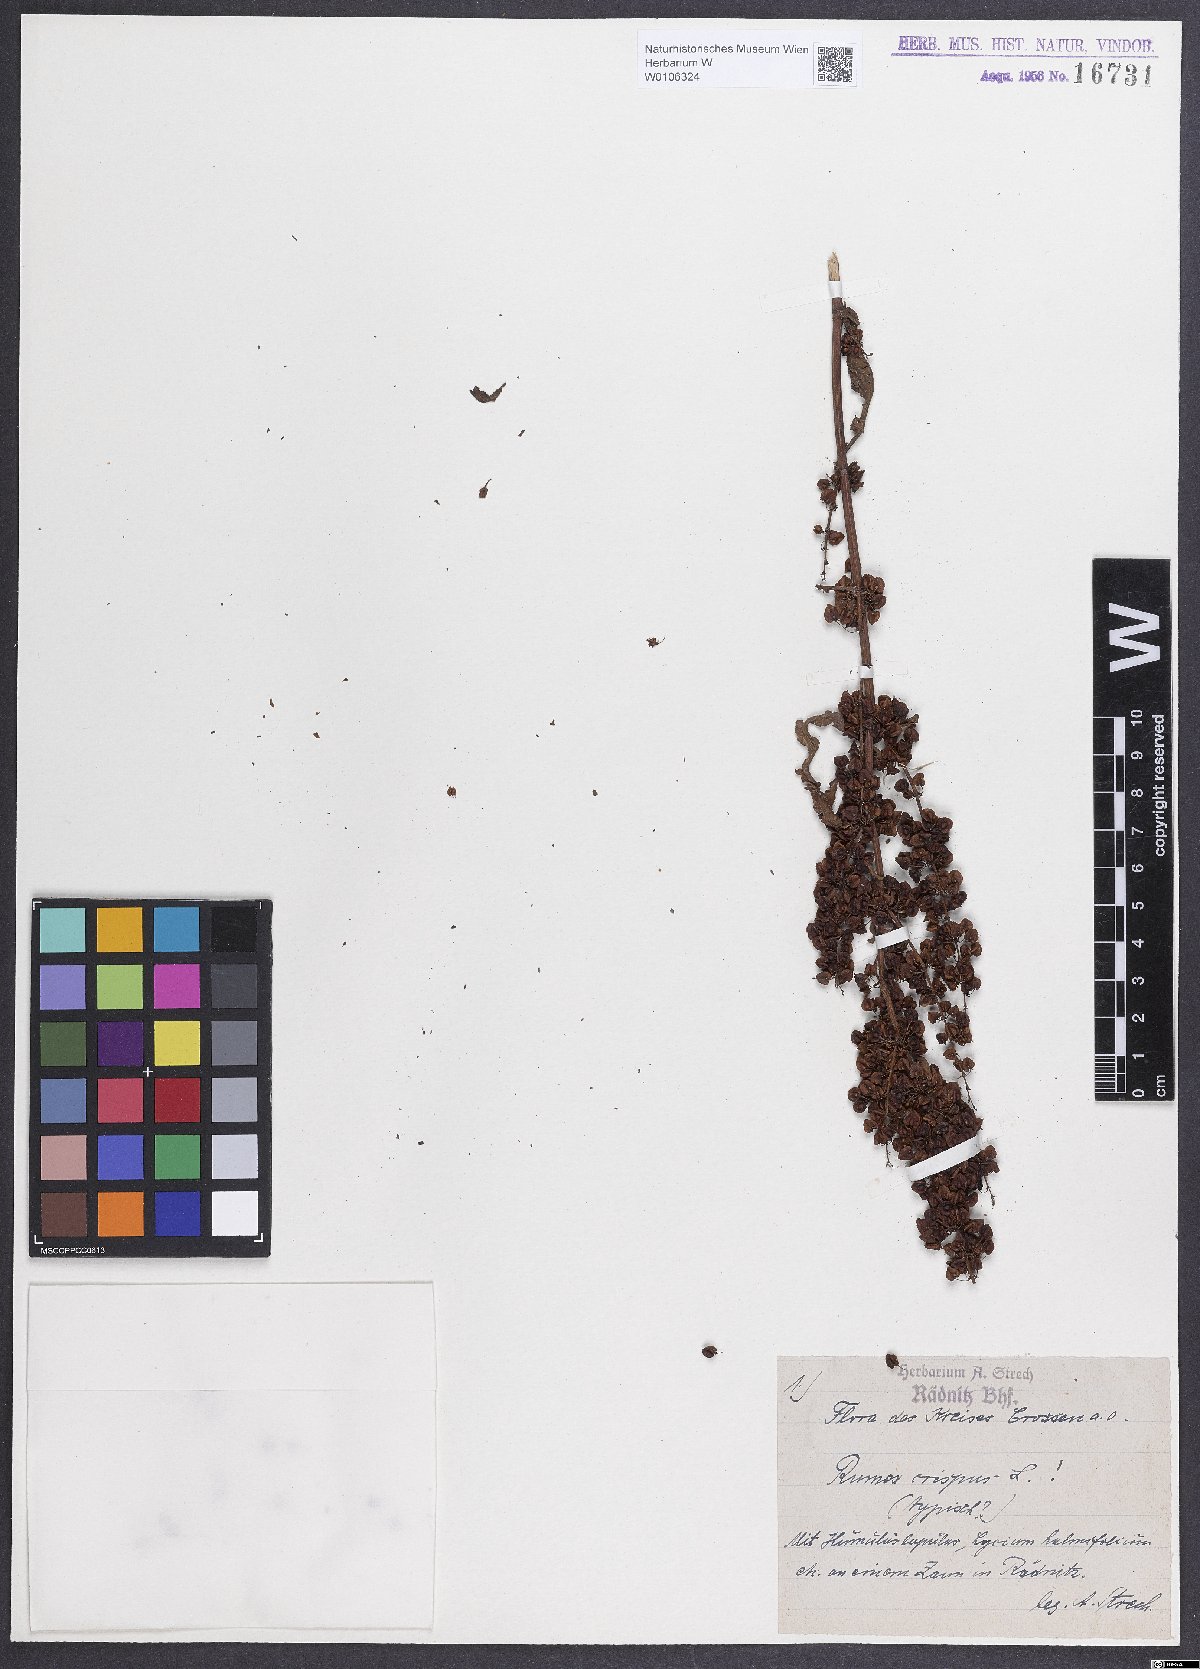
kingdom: Plantae
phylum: Tracheophyta
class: Magnoliopsida
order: Caryophyllales
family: Polygonaceae
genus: Rumex
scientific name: Rumex crispus
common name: Curled dock
